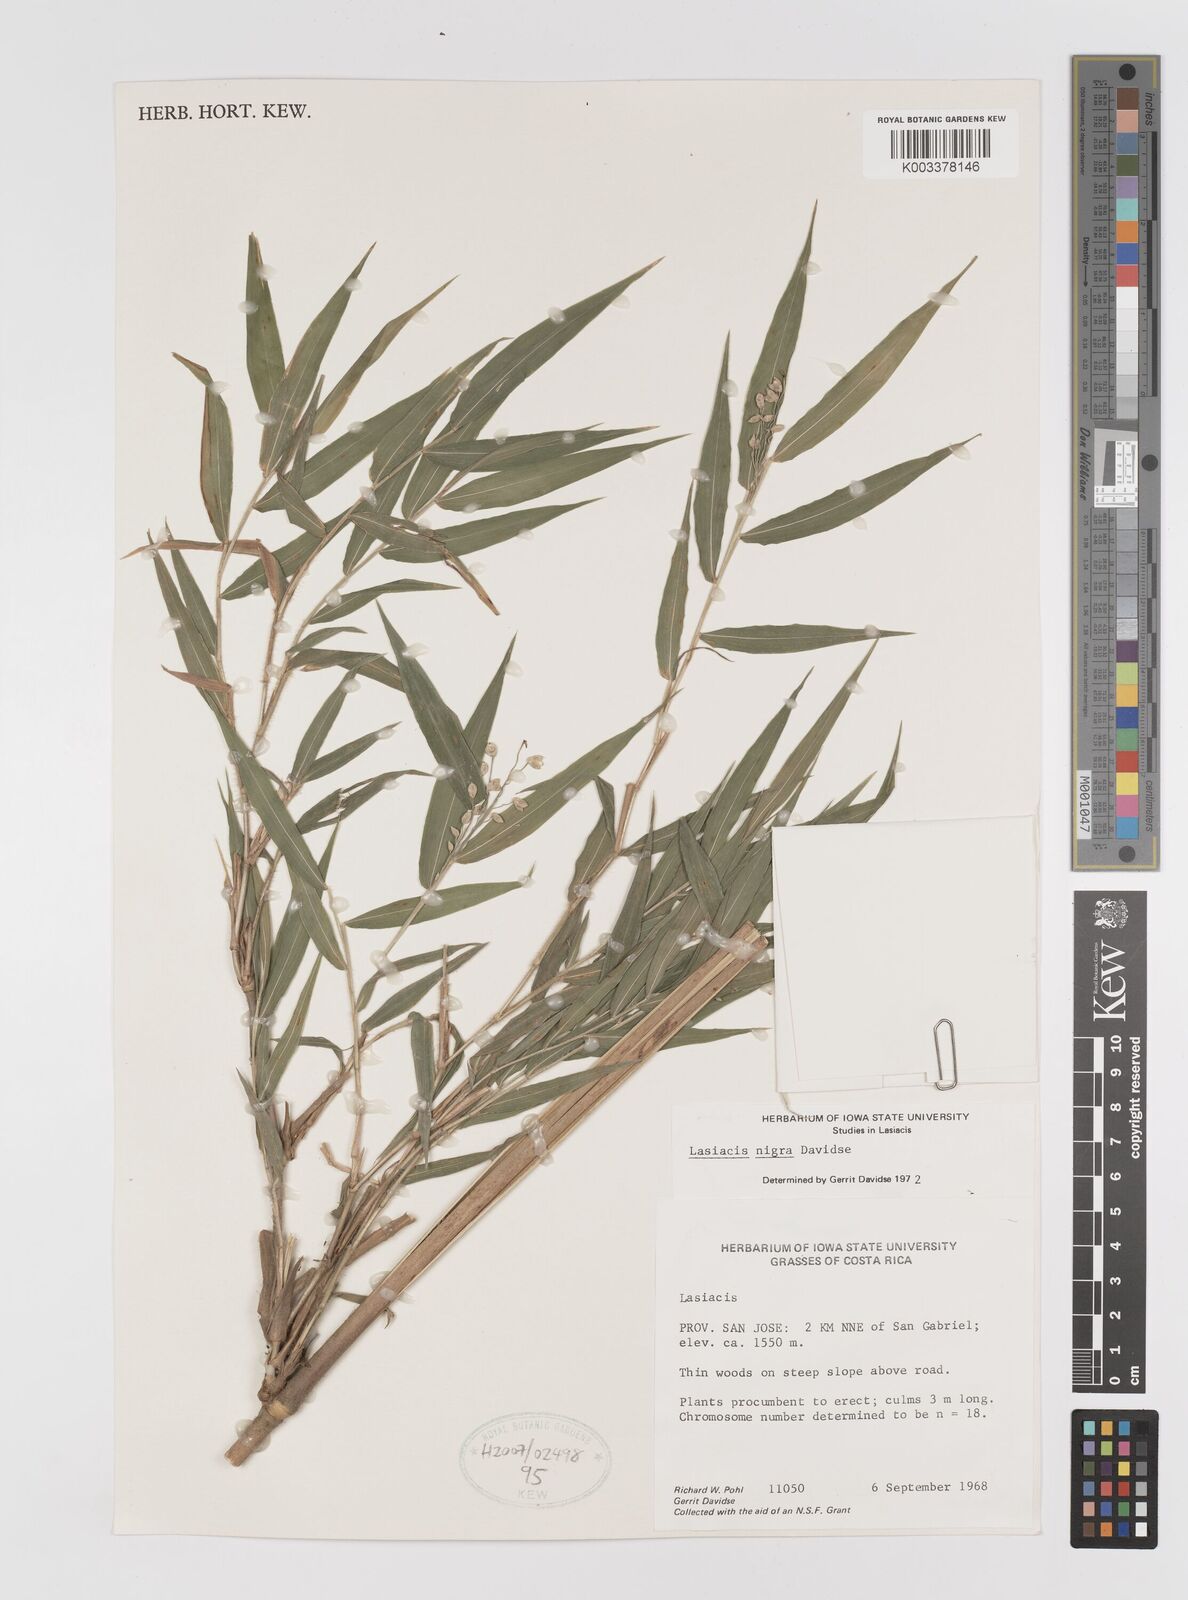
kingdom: Plantae
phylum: Tracheophyta
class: Liliopsida
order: Poales
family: Poaceae
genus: Lasiacis
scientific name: Lasiacis nigra
